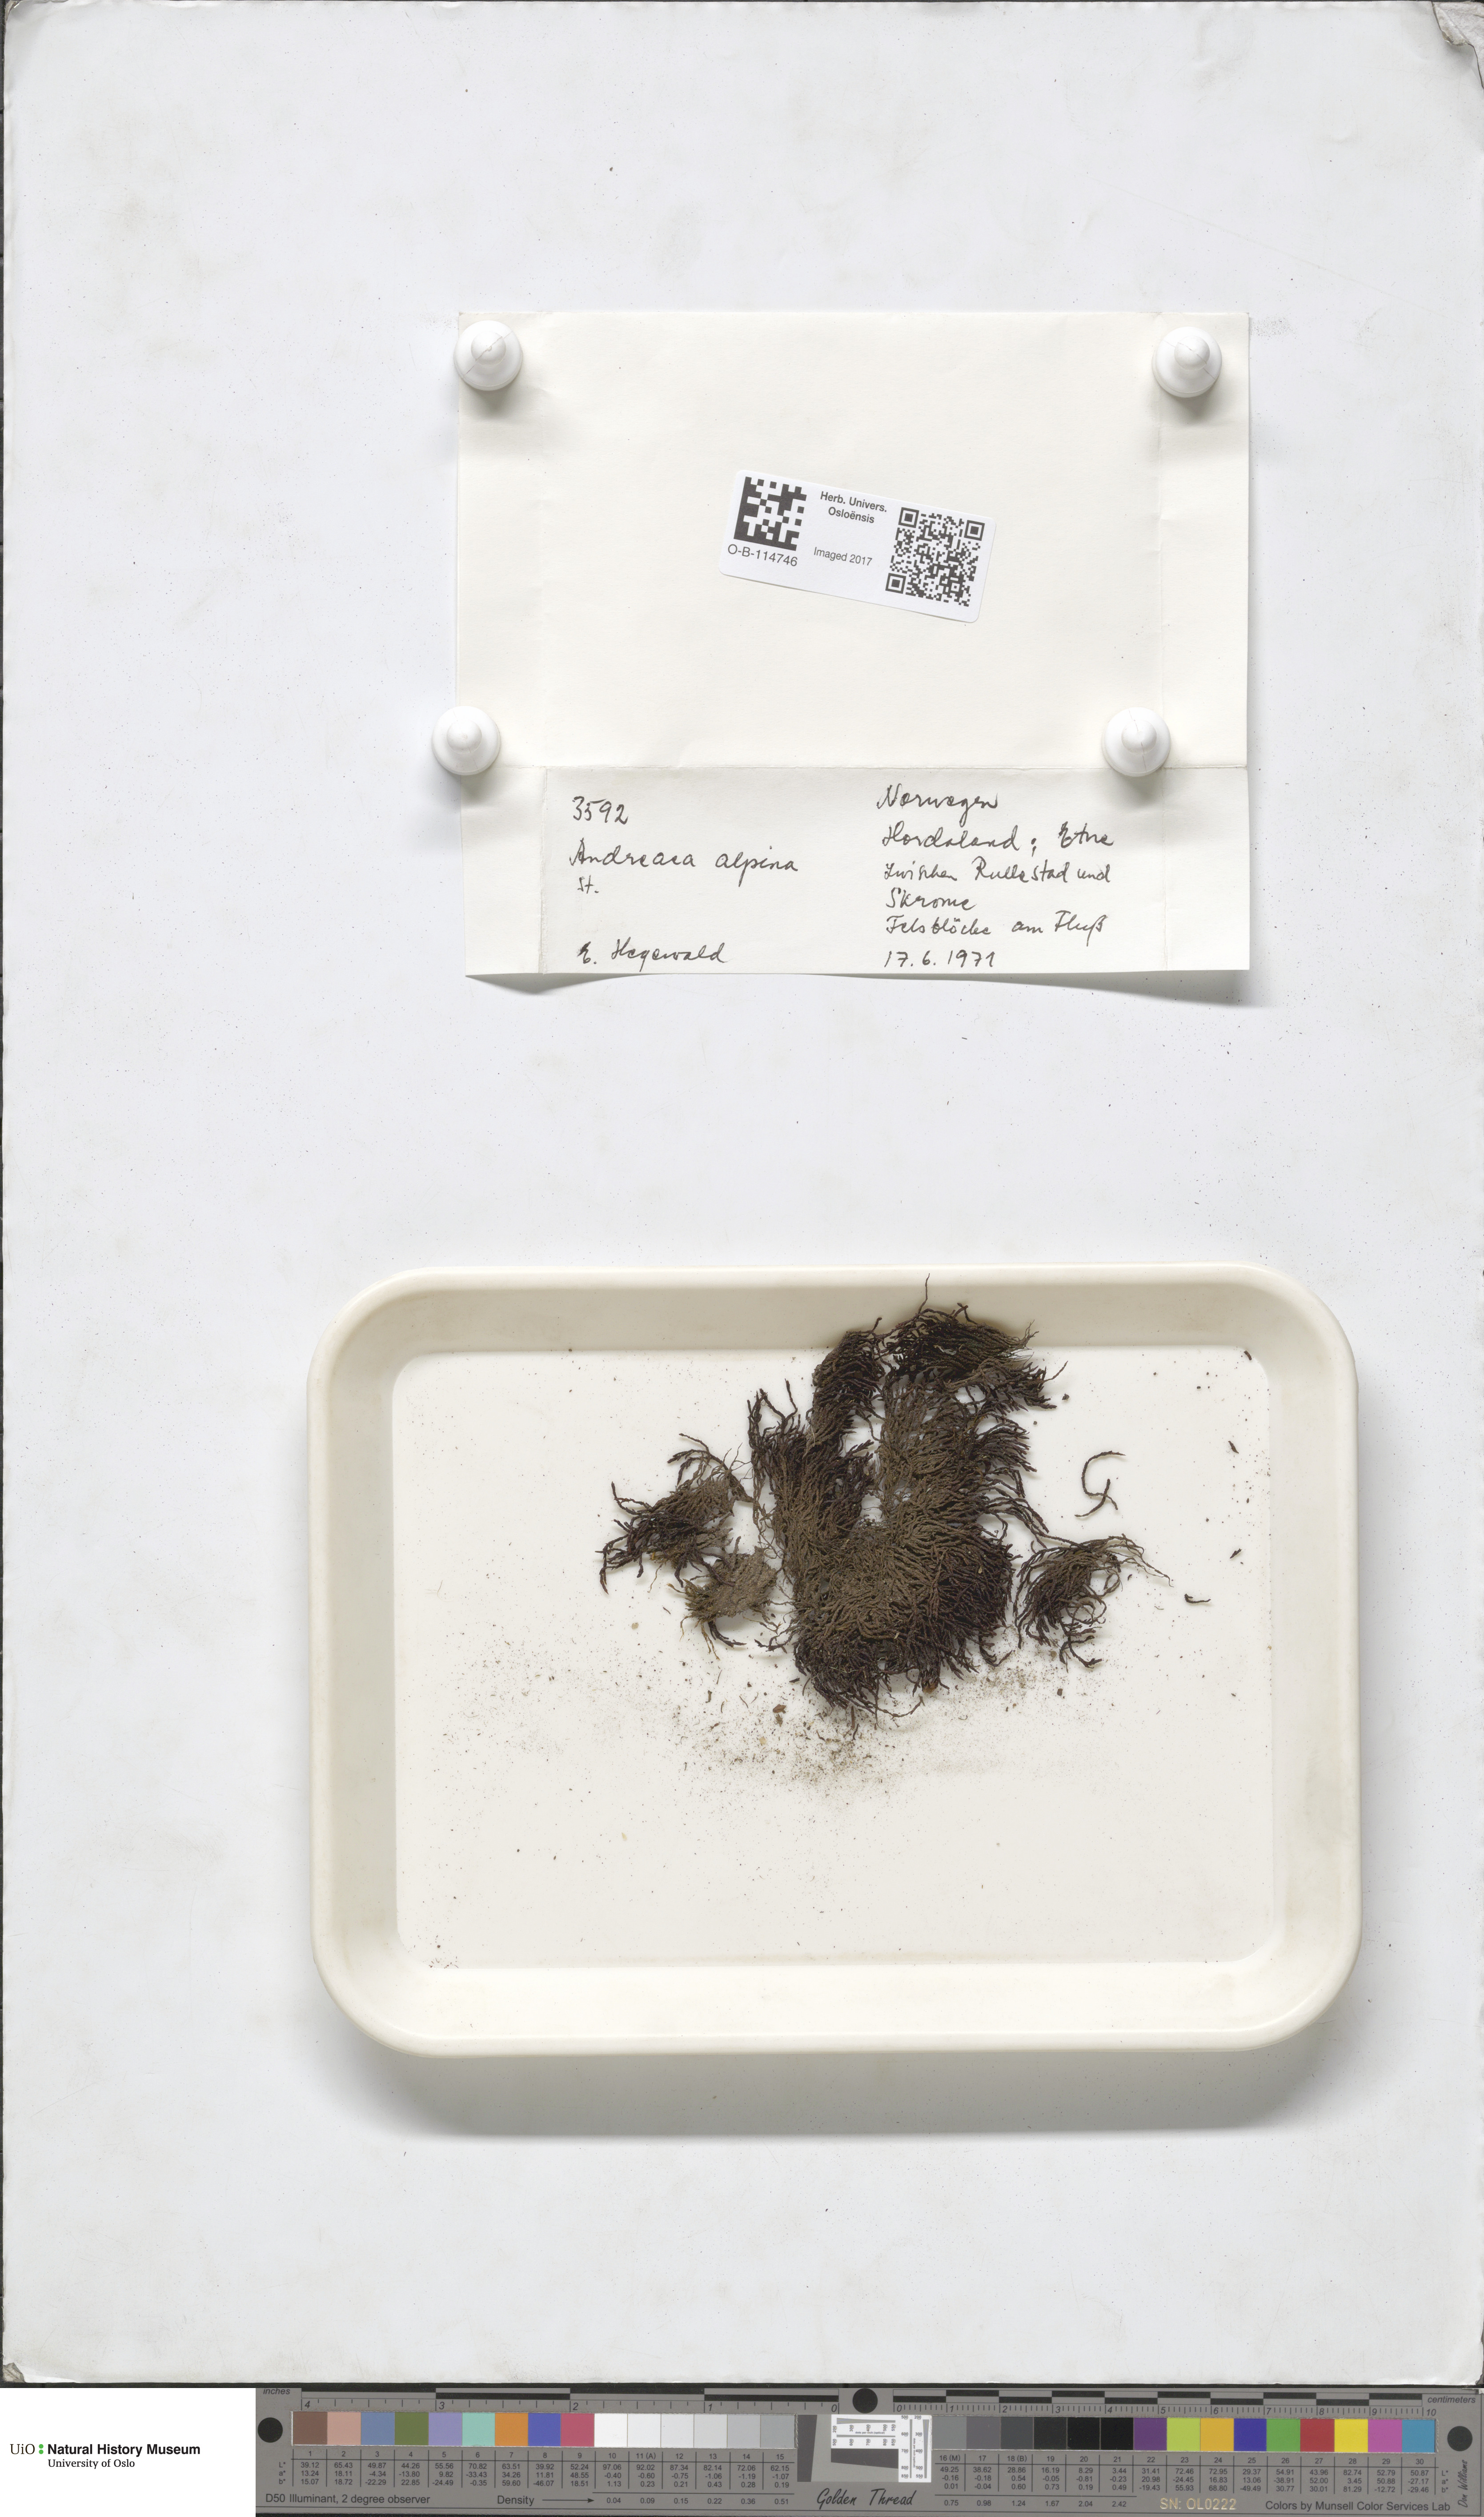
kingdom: Plantae
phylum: Bryophyta
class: Andreaeopsida
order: Andreaeales
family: Andreaeaceae
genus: Andreaea
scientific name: Andreaea hookeri
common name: Alpine rock-moss
